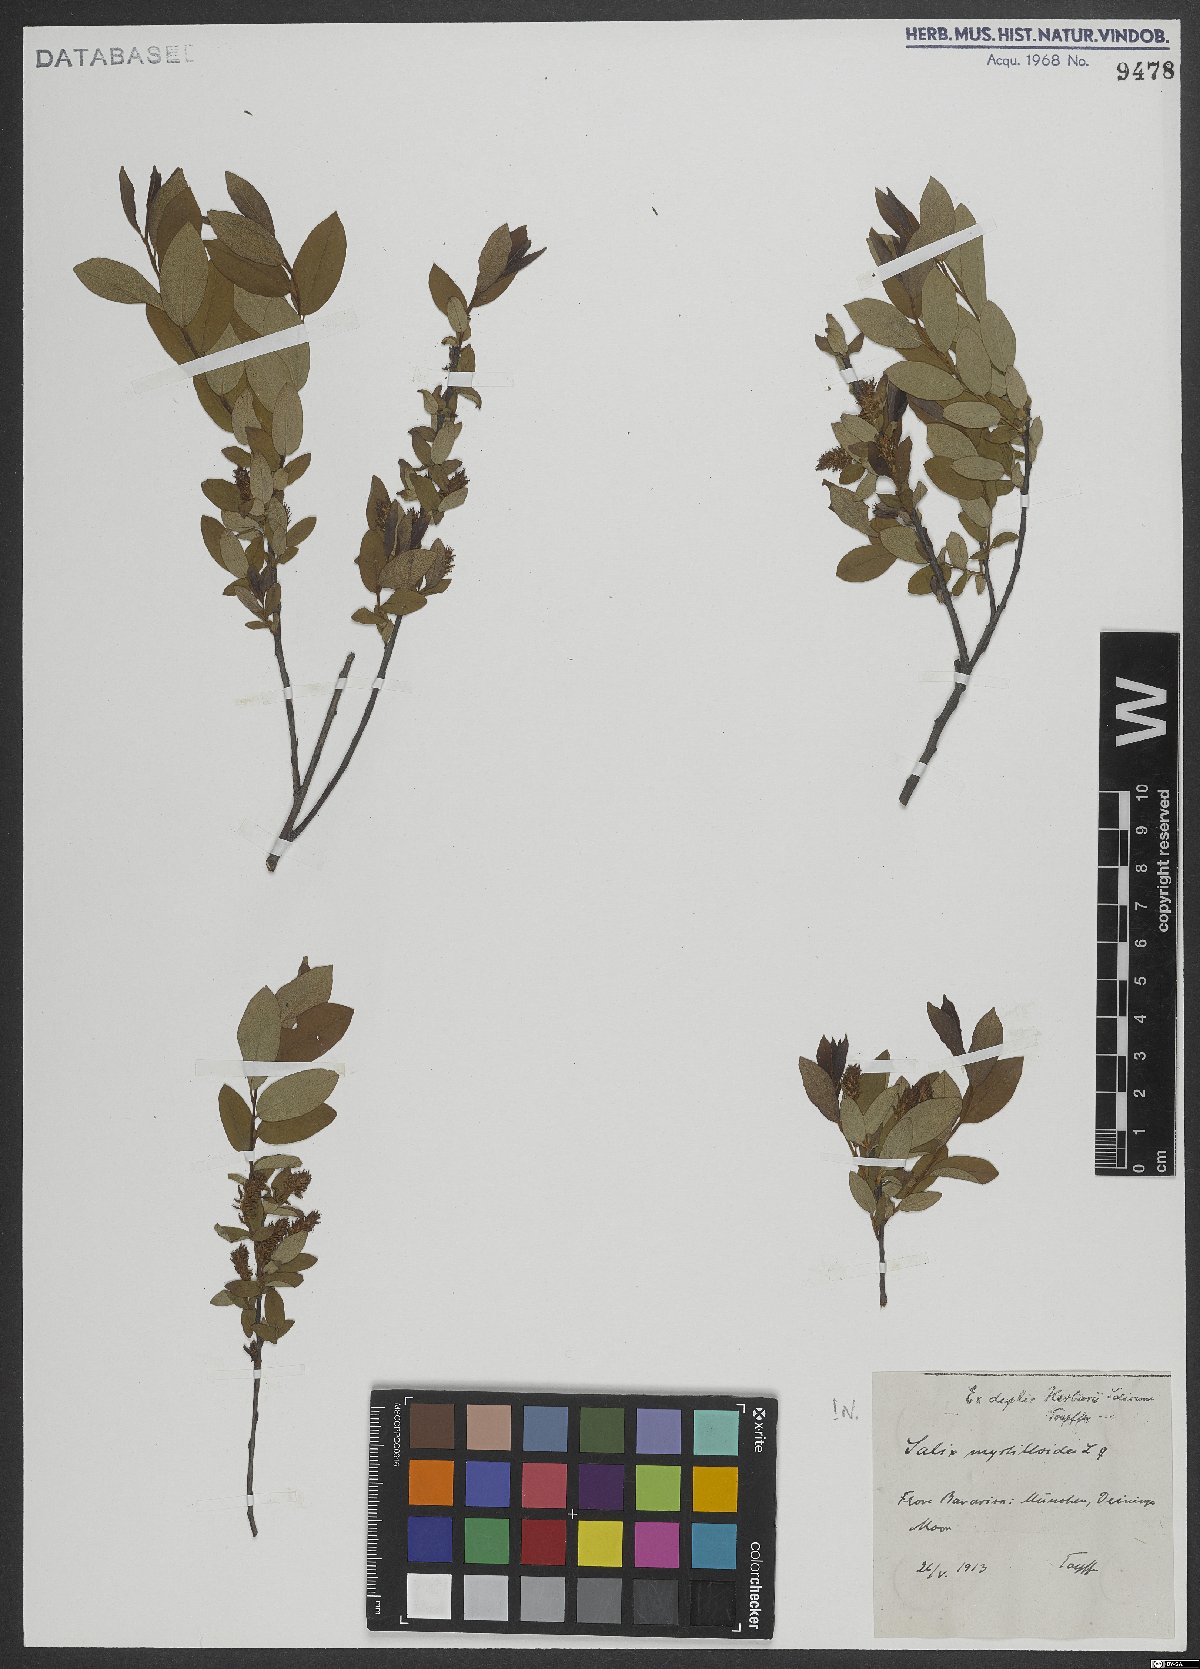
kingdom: Plantae
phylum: Tracheophyta
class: Magnoliopsida
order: Malpighiales
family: Salicaceae
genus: Salix
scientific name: Salix myrtilloides
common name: Myrtle-leaved willow
